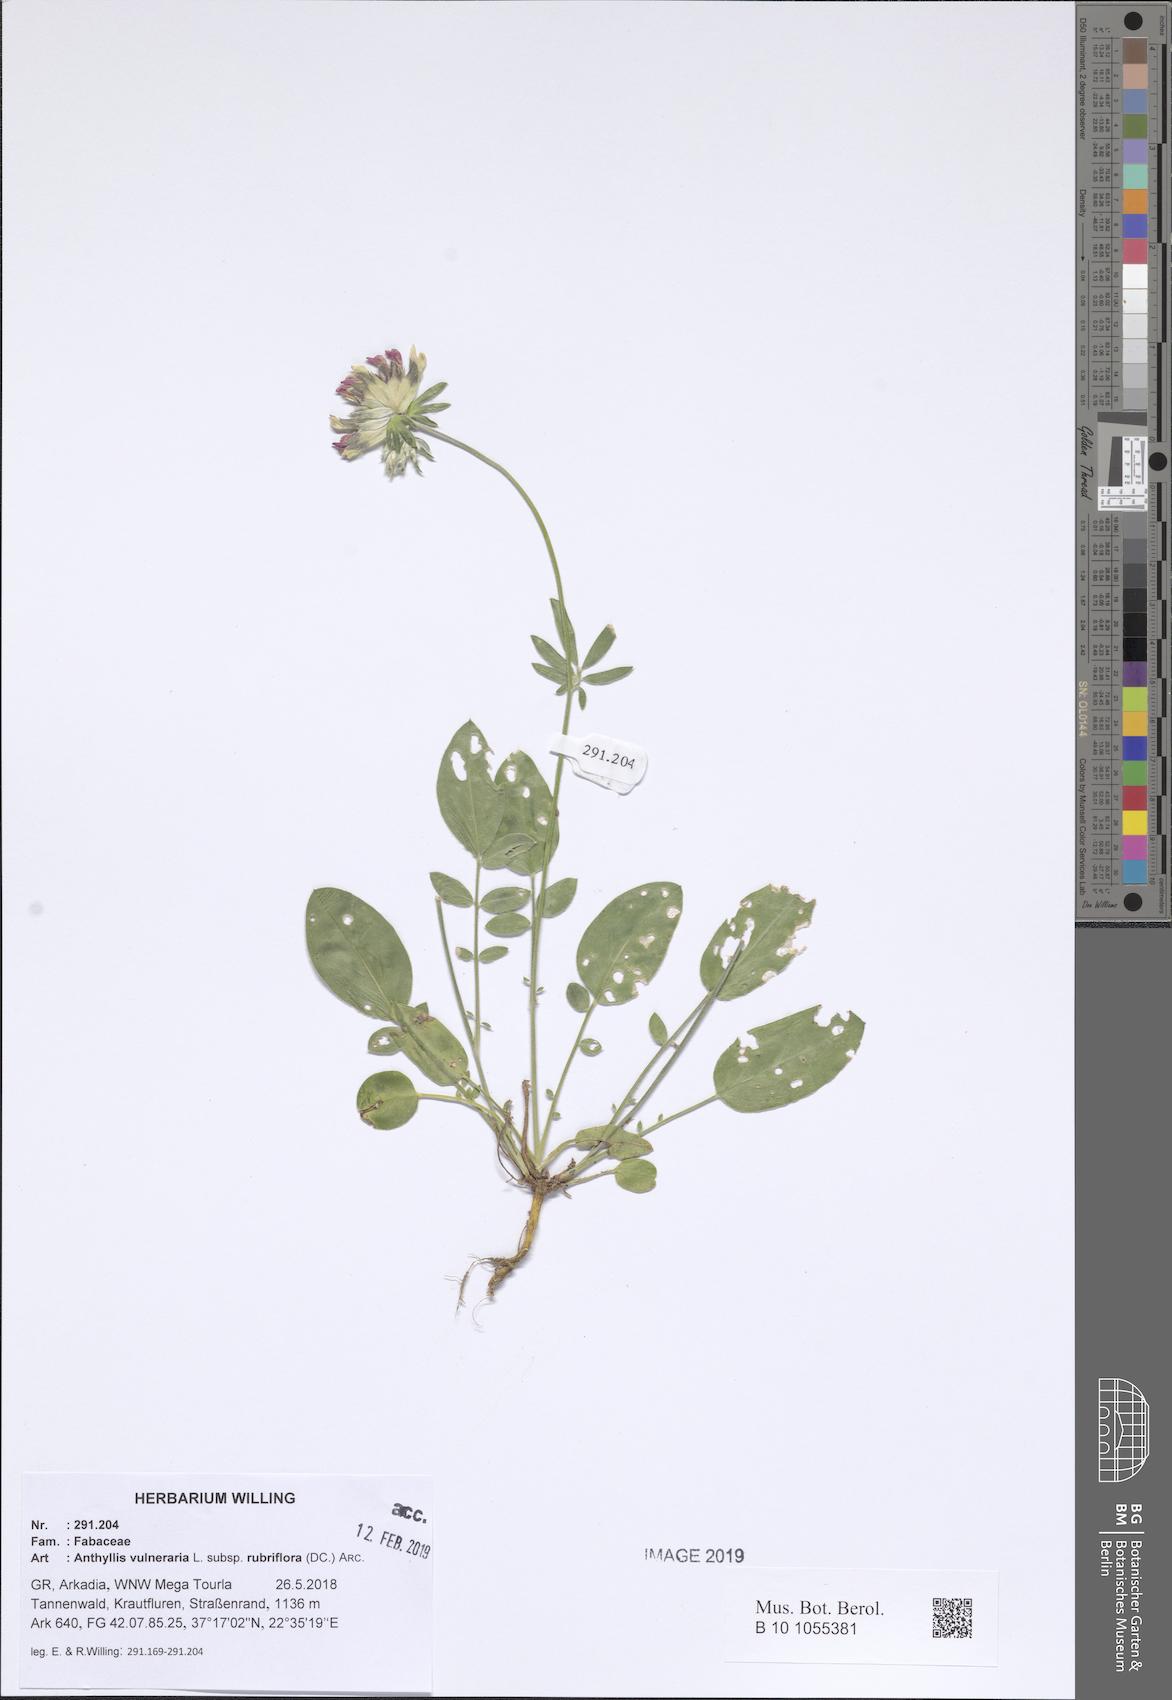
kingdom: Plantae
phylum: Tracheophyta
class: Magnoliopsida
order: Fabales
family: Fabaceae
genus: Anthyllis
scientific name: Anthyllis vulneraria
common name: Kidney vetch
